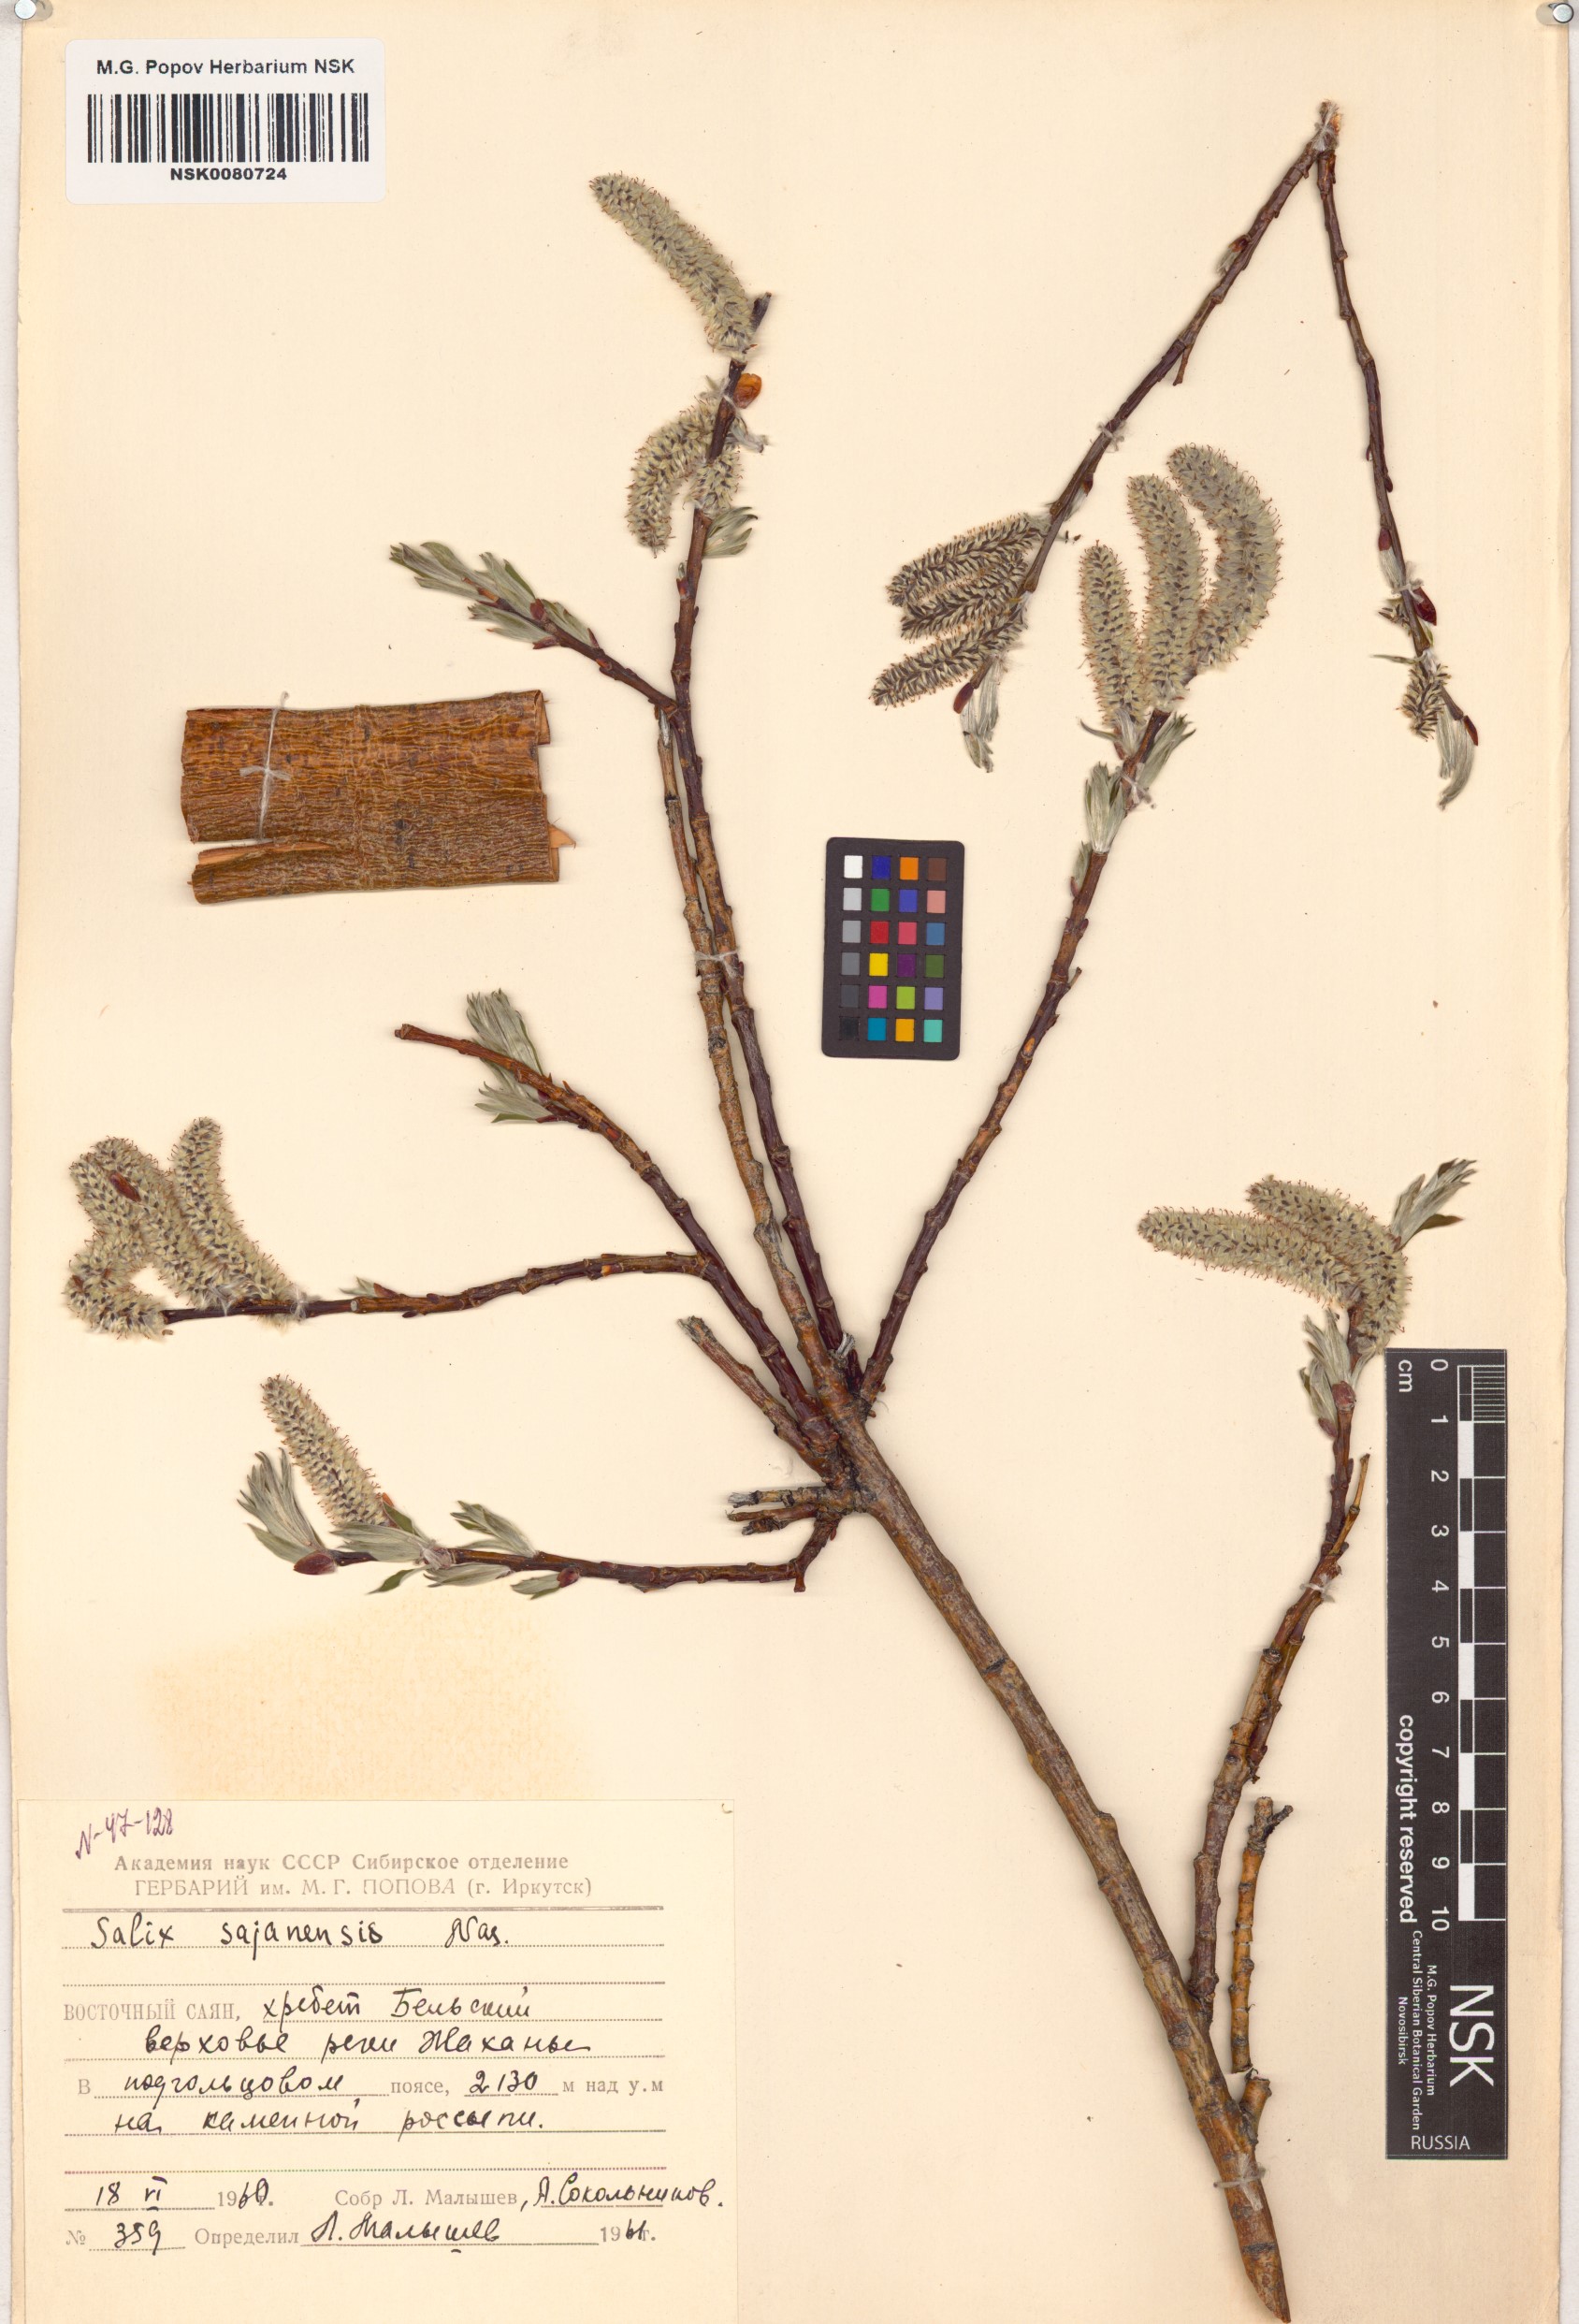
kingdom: Plantae
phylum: Tracheophyta
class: Magnoliopsida
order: Malpighiales
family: Salicaceae
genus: Salix
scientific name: Salix sajanensis
